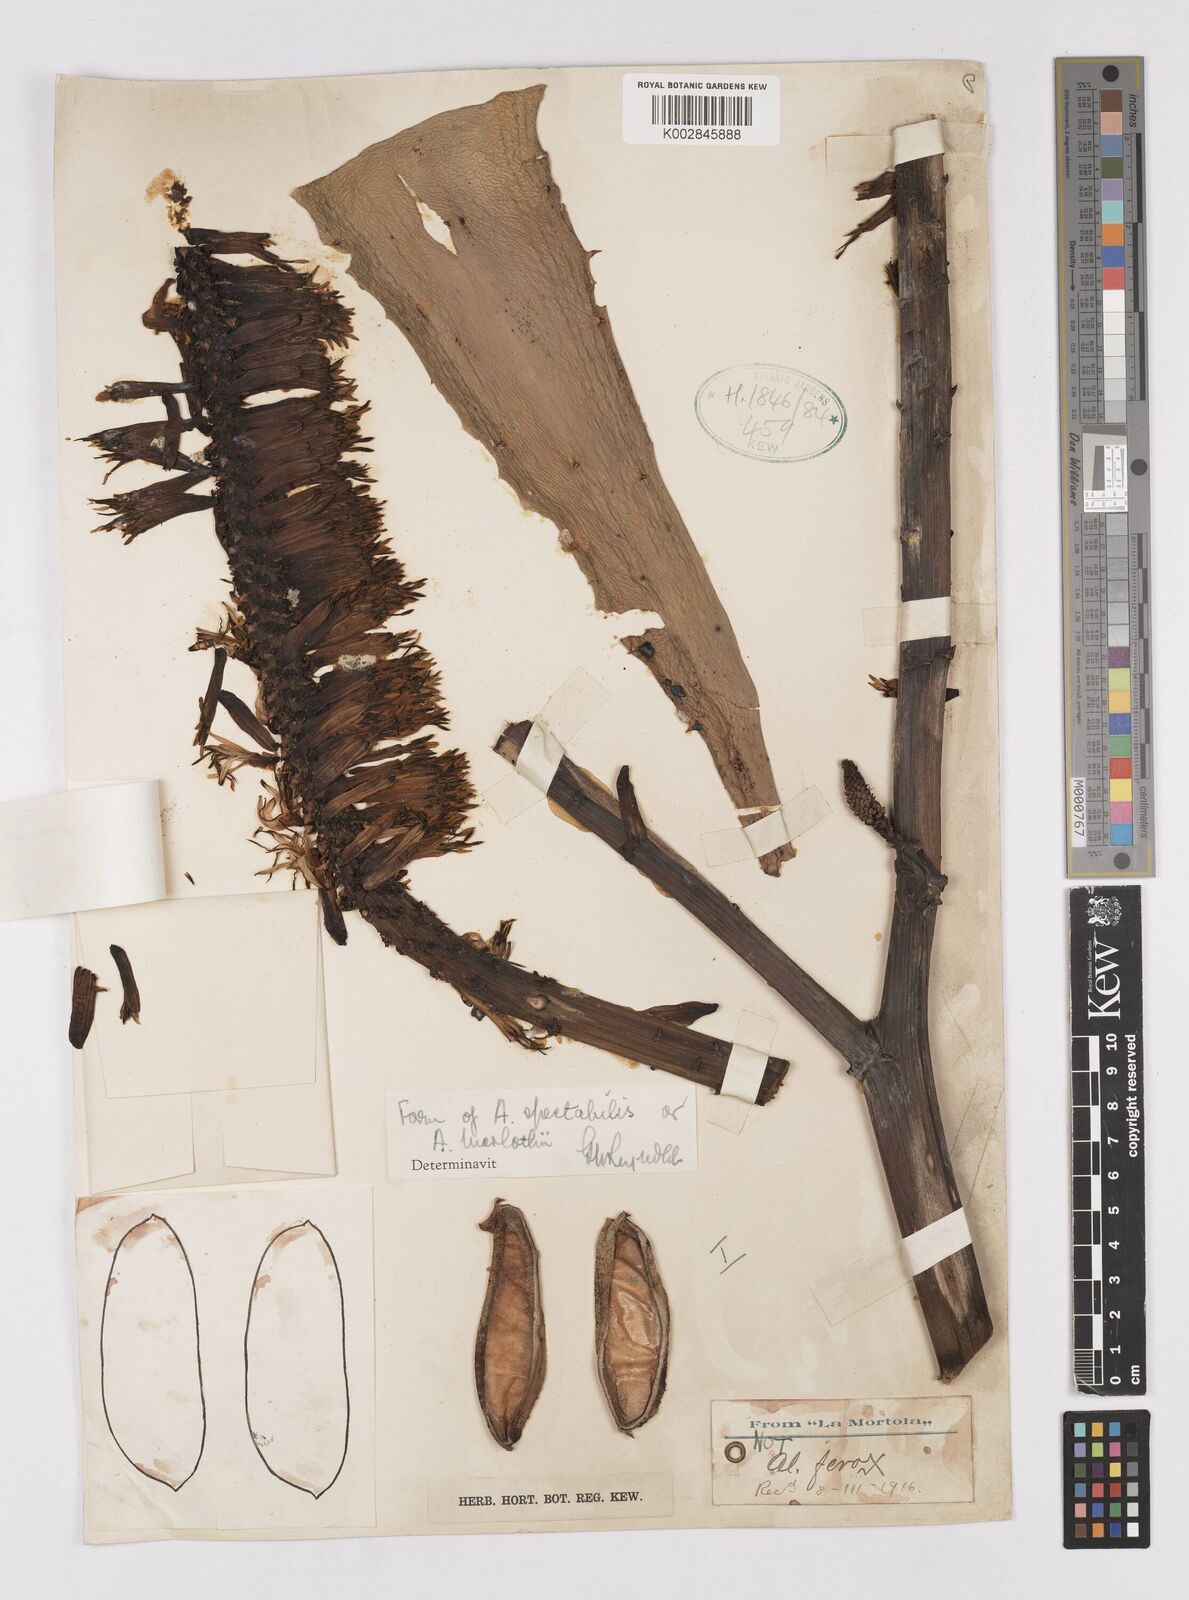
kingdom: Plantae
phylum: Tracheophyta
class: Liliopsida
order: Asparagales
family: Asphodelaceae
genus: Aloe
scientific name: Aloe marlothii
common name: Flat-flowered aloe
